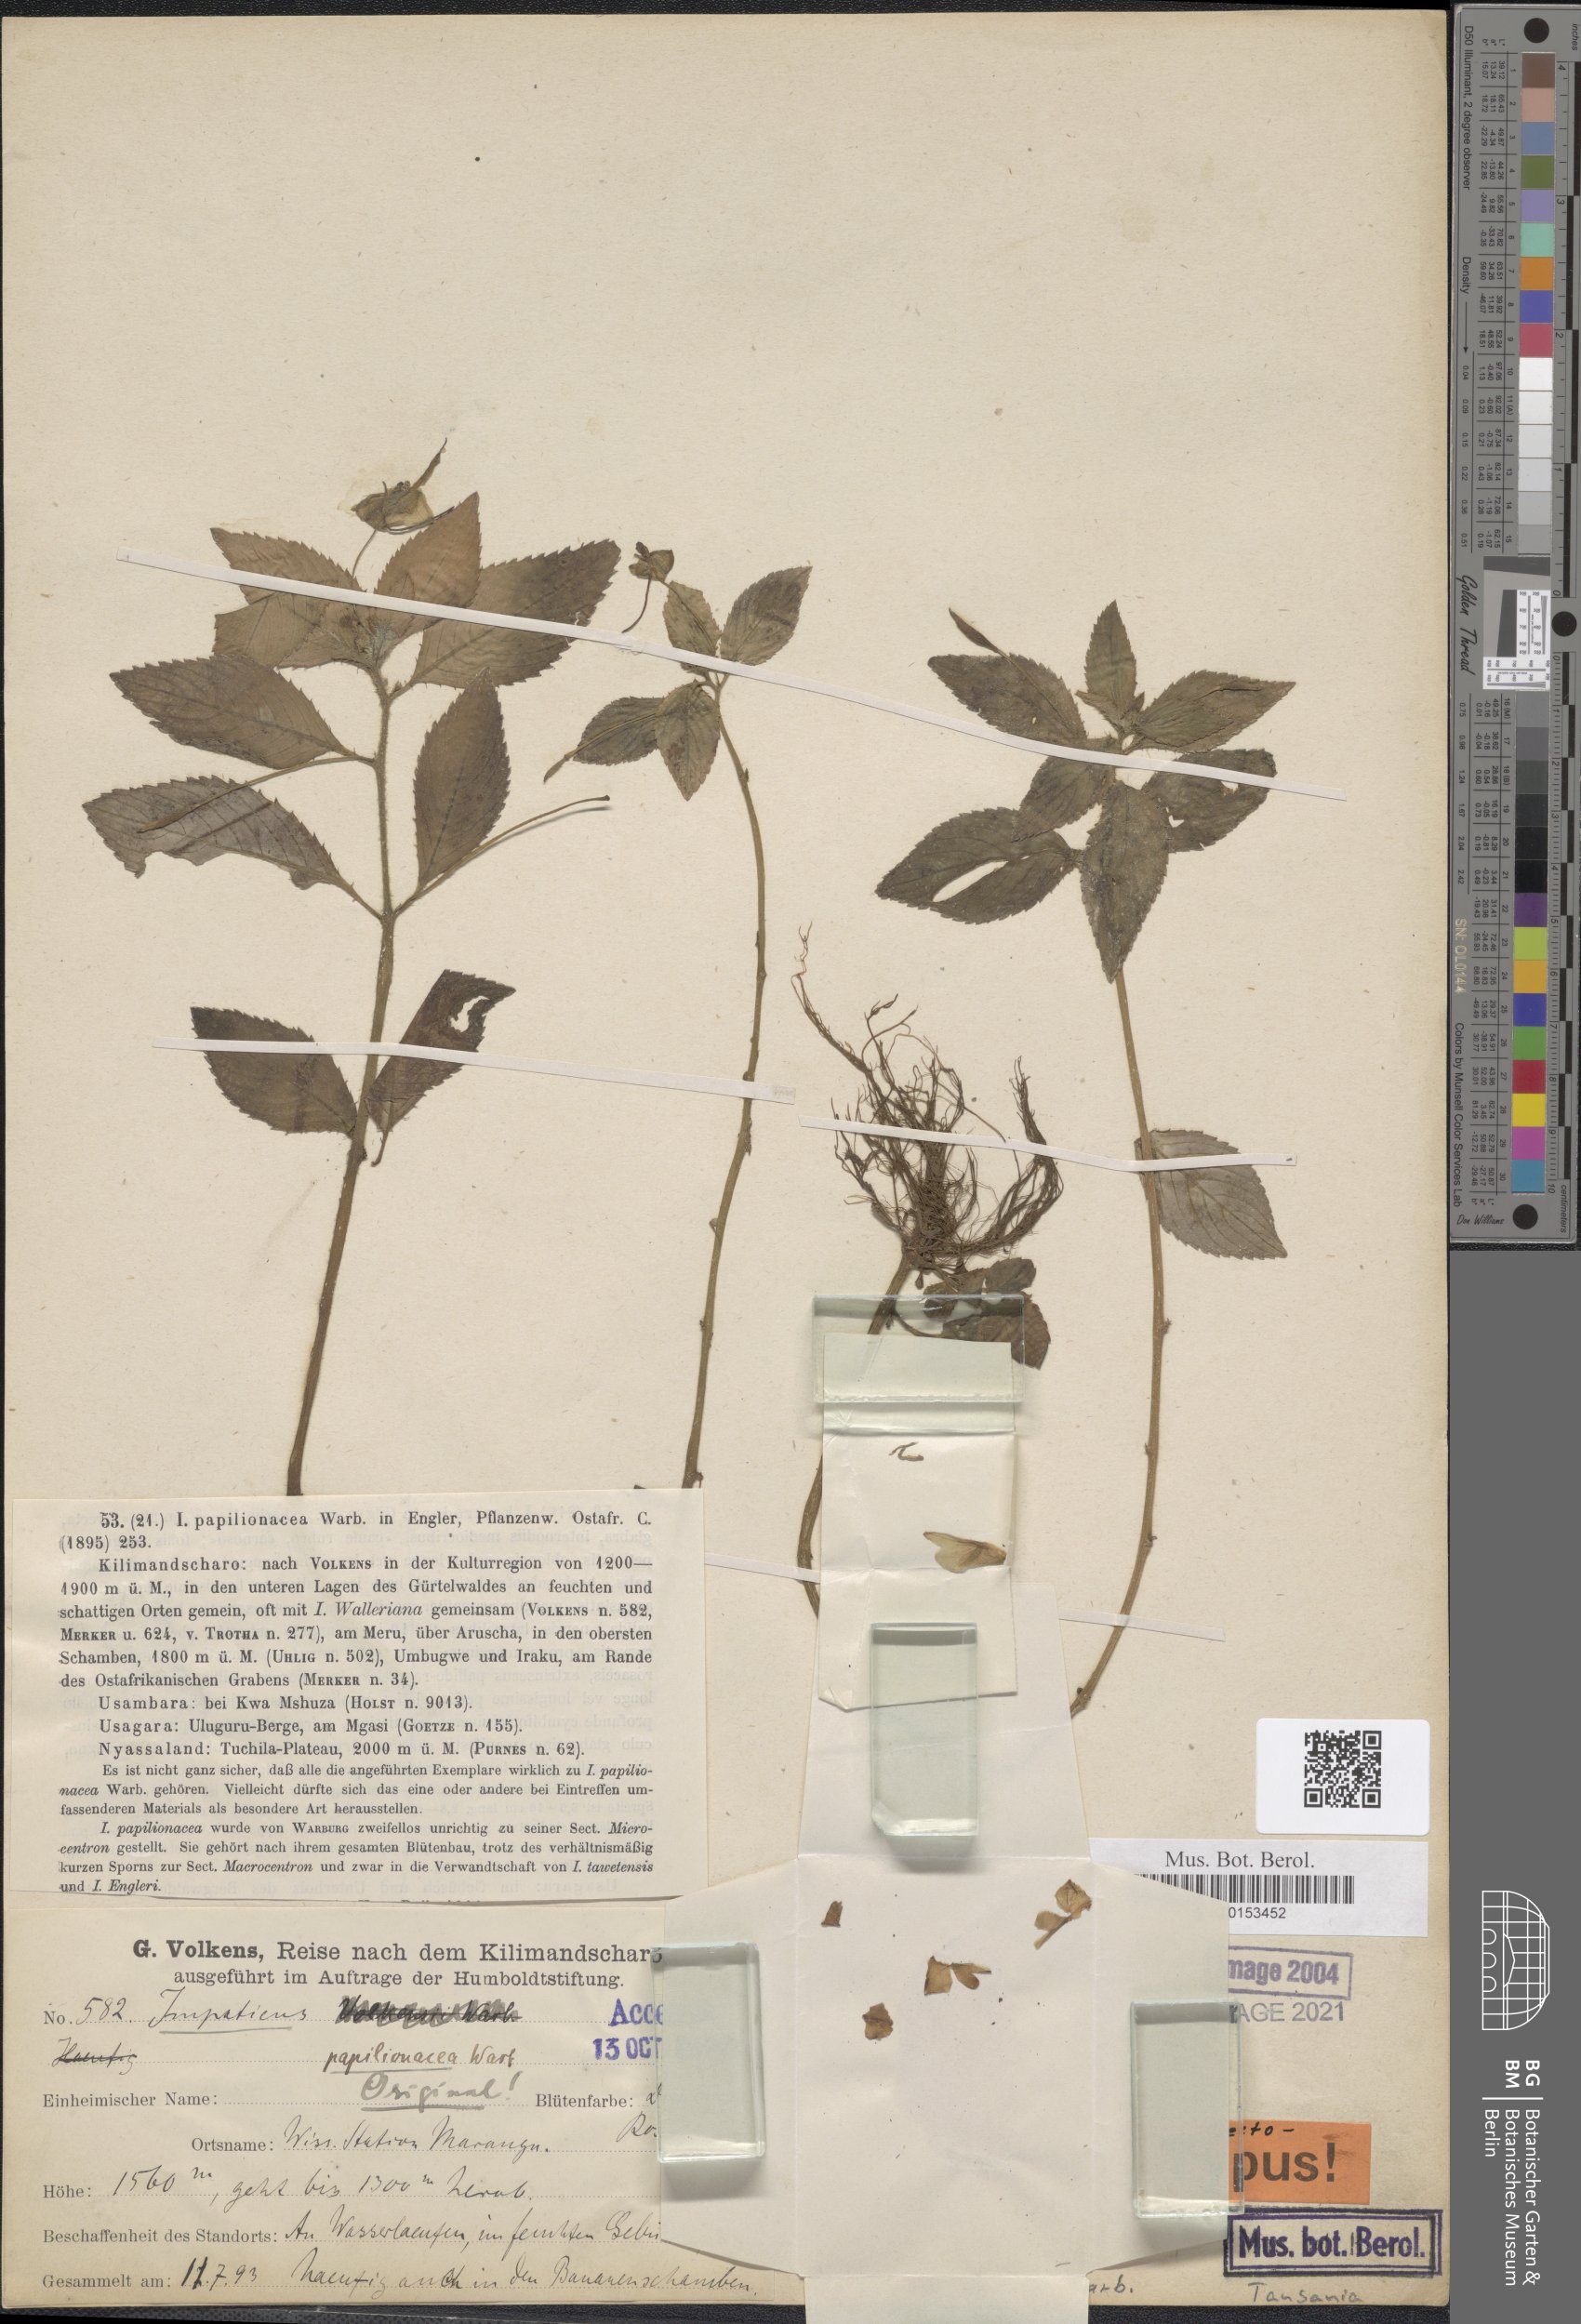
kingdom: Plantae
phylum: Tracheophyta
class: Magnoliopsida
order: Ericales
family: Balsaminaceae
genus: Impatiens
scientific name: Impatiens nana
